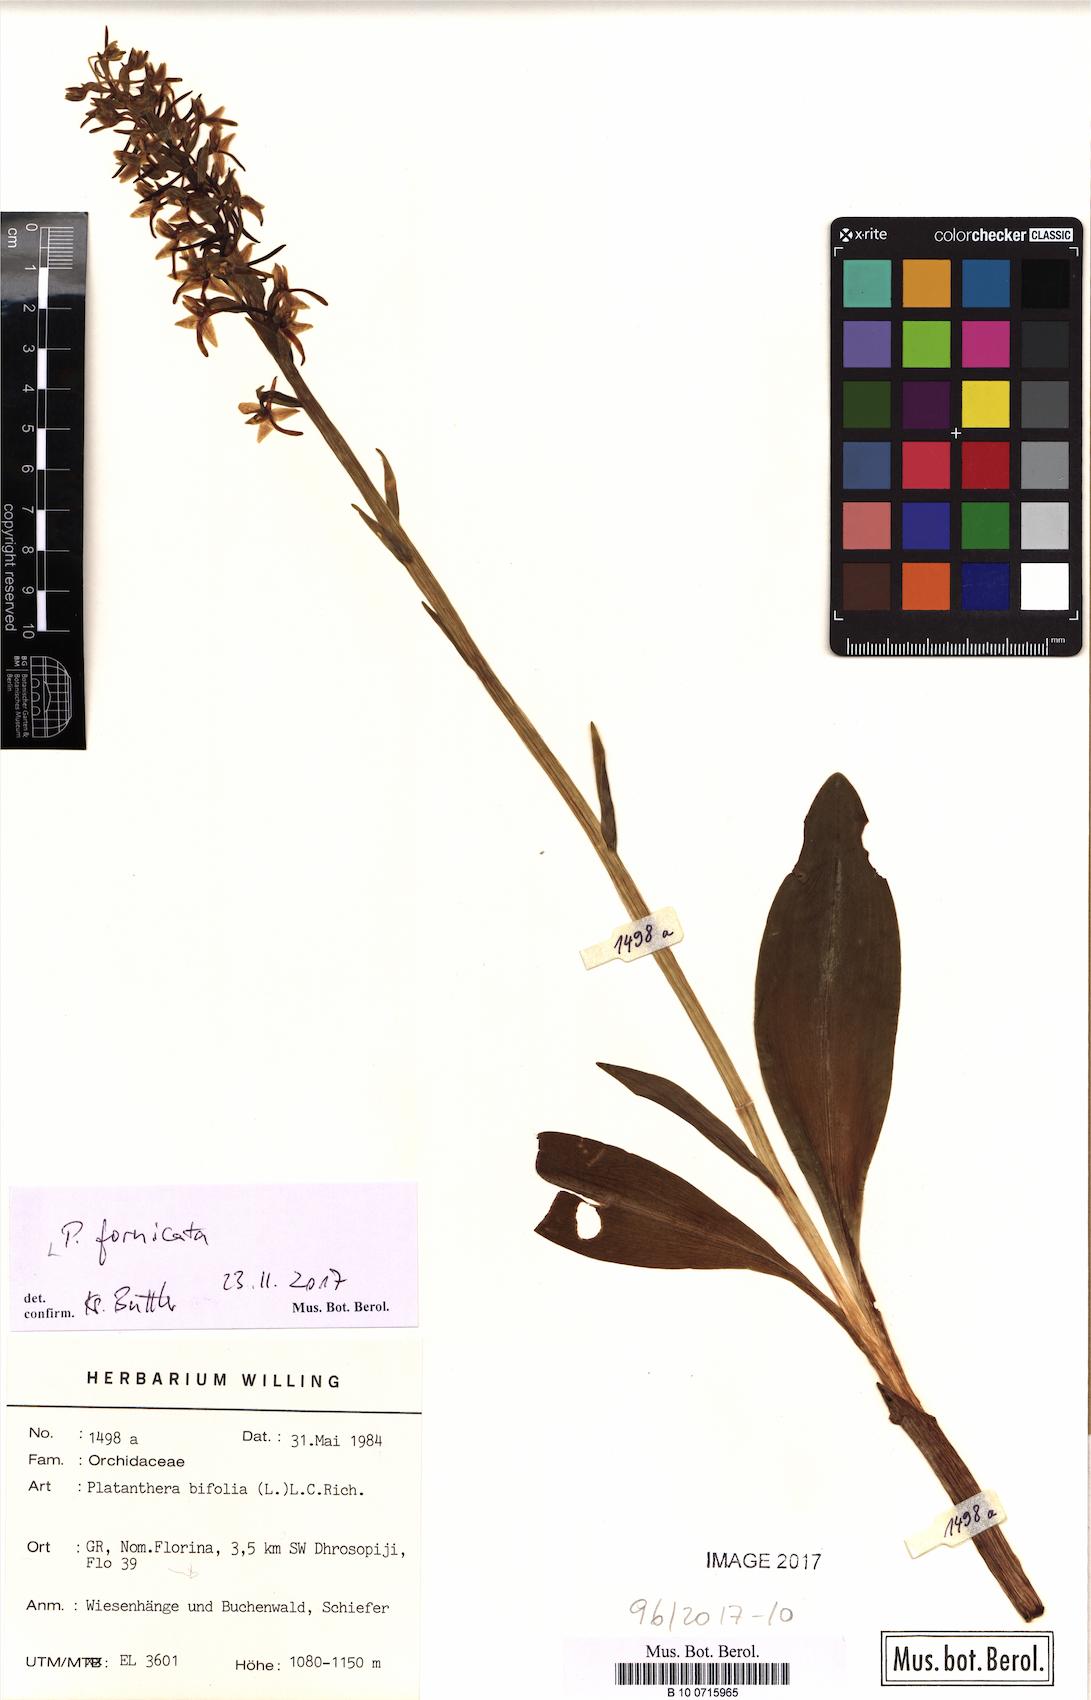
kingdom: Plantae
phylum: Tracheophyta
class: Liliopsida
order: Asparagales
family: Orchidaceae
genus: Platanthera
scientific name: Platanthera bifolia
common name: Lesser butterfly-orchid
